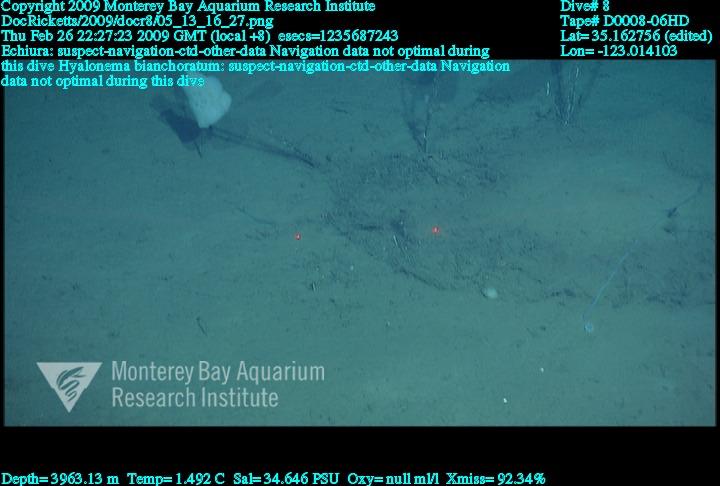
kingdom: Animalia
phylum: Porifera
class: Hexactinellida
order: Amphidiscosida
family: Hyalonematidae
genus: Hyalonema
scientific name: Hyalonema bianchoratum
